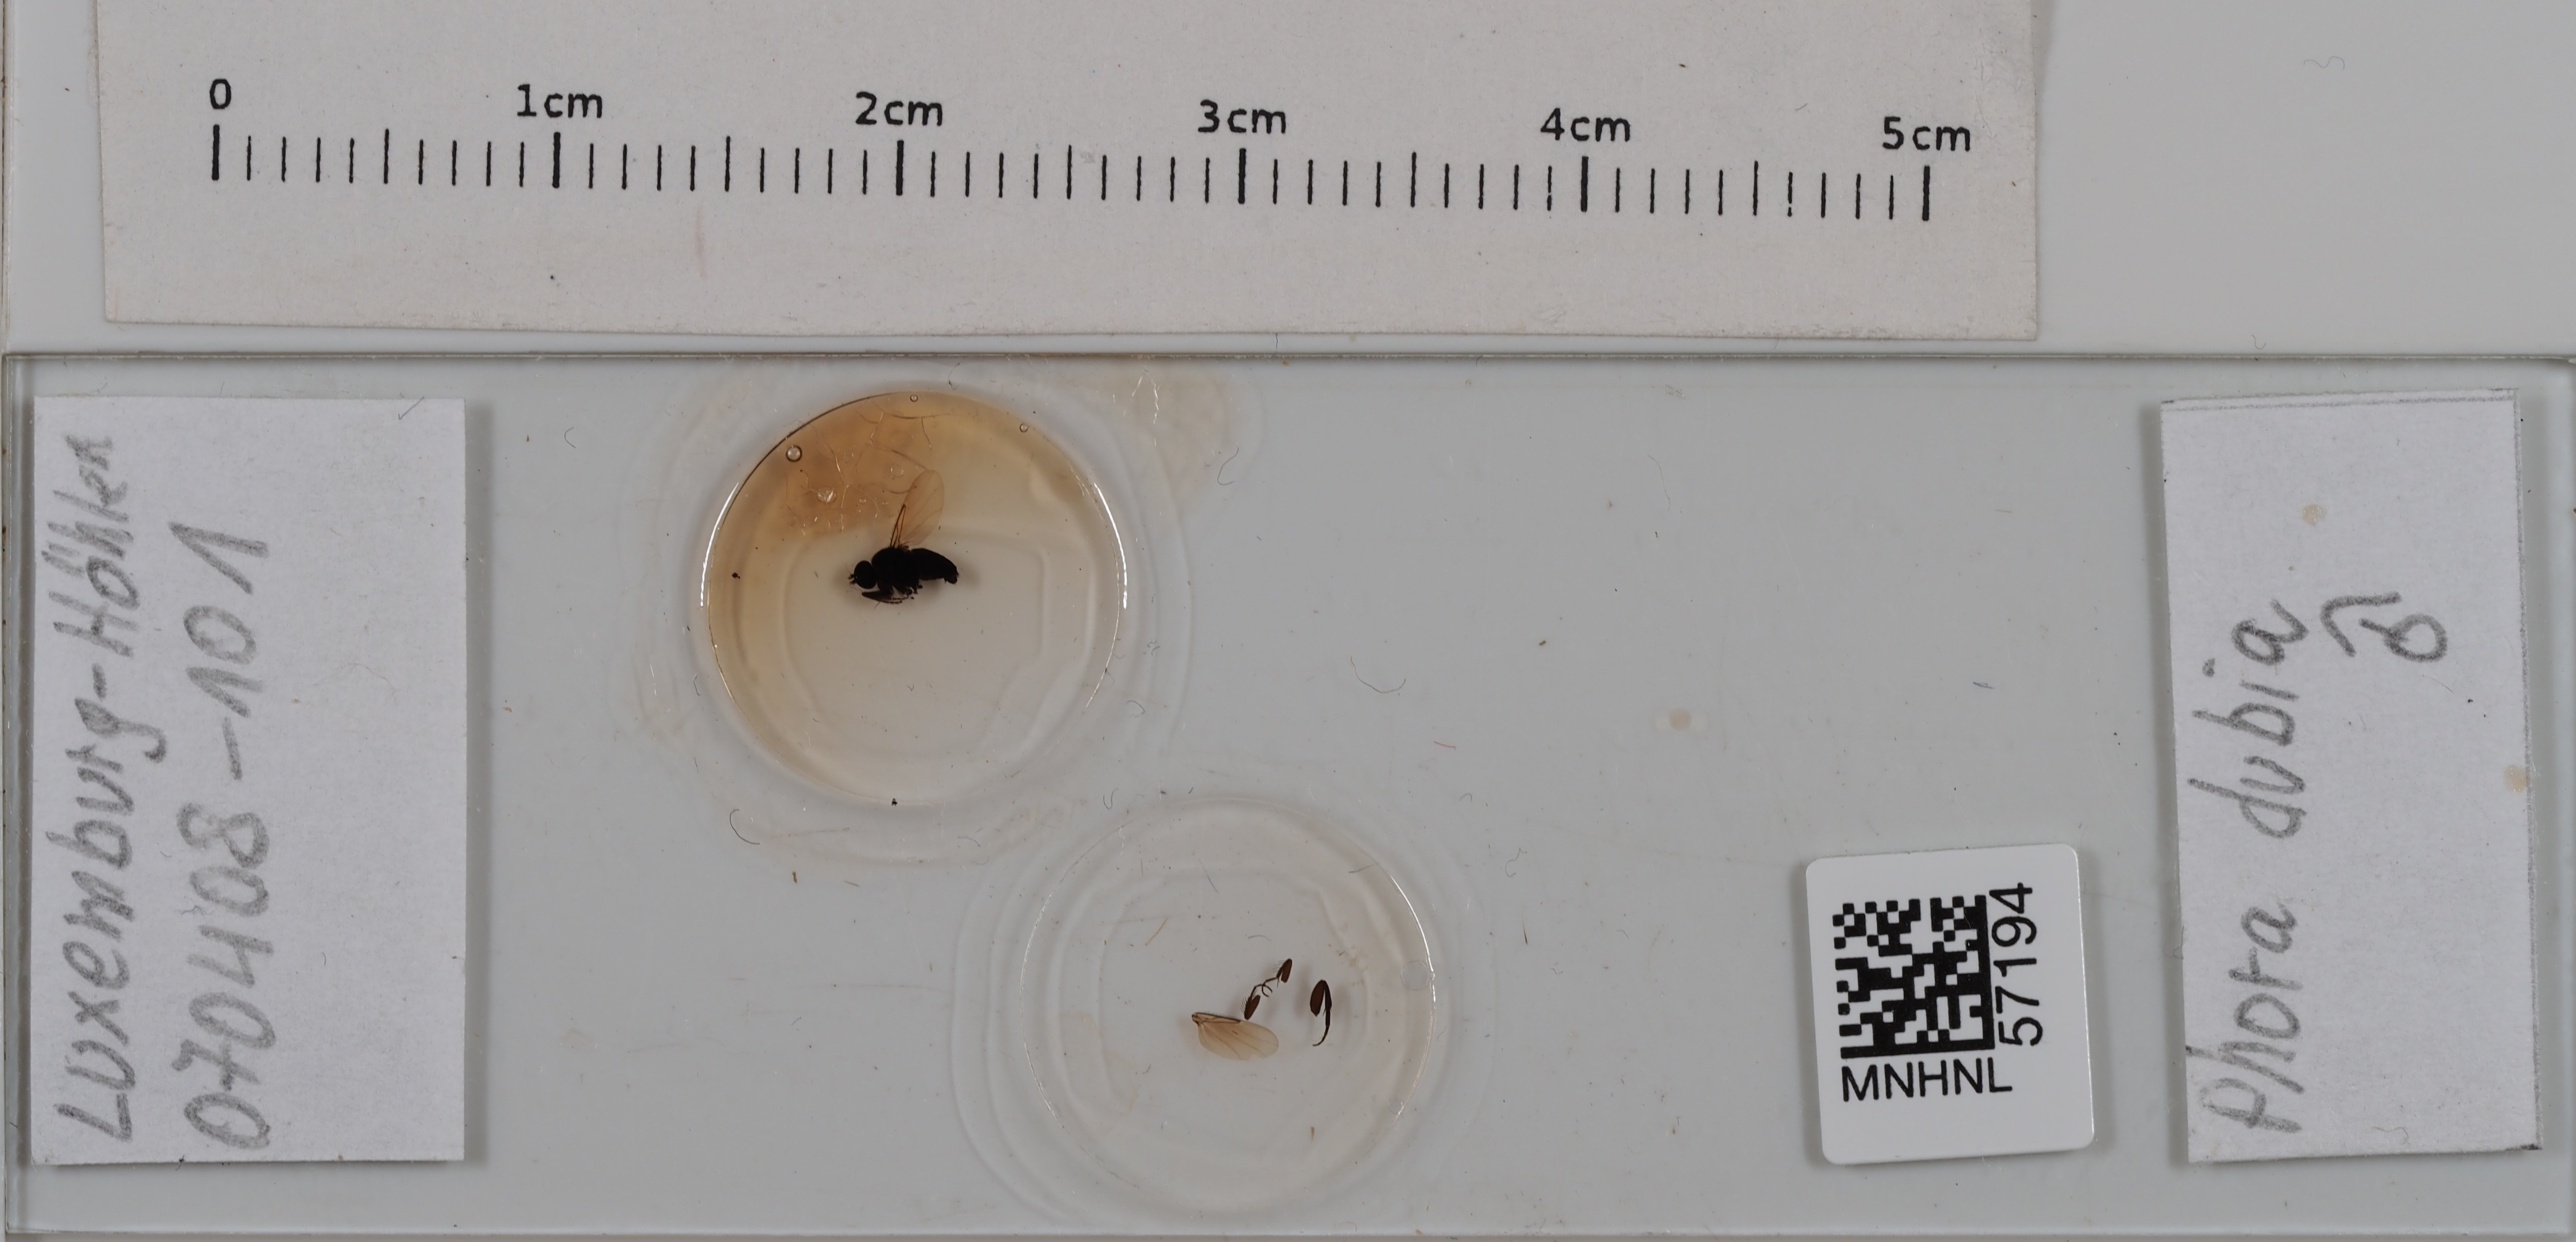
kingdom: Animalia
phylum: Arthropoda
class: Insecta
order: Diptera
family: Phoridae
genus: Phora
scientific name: Phora dubia
